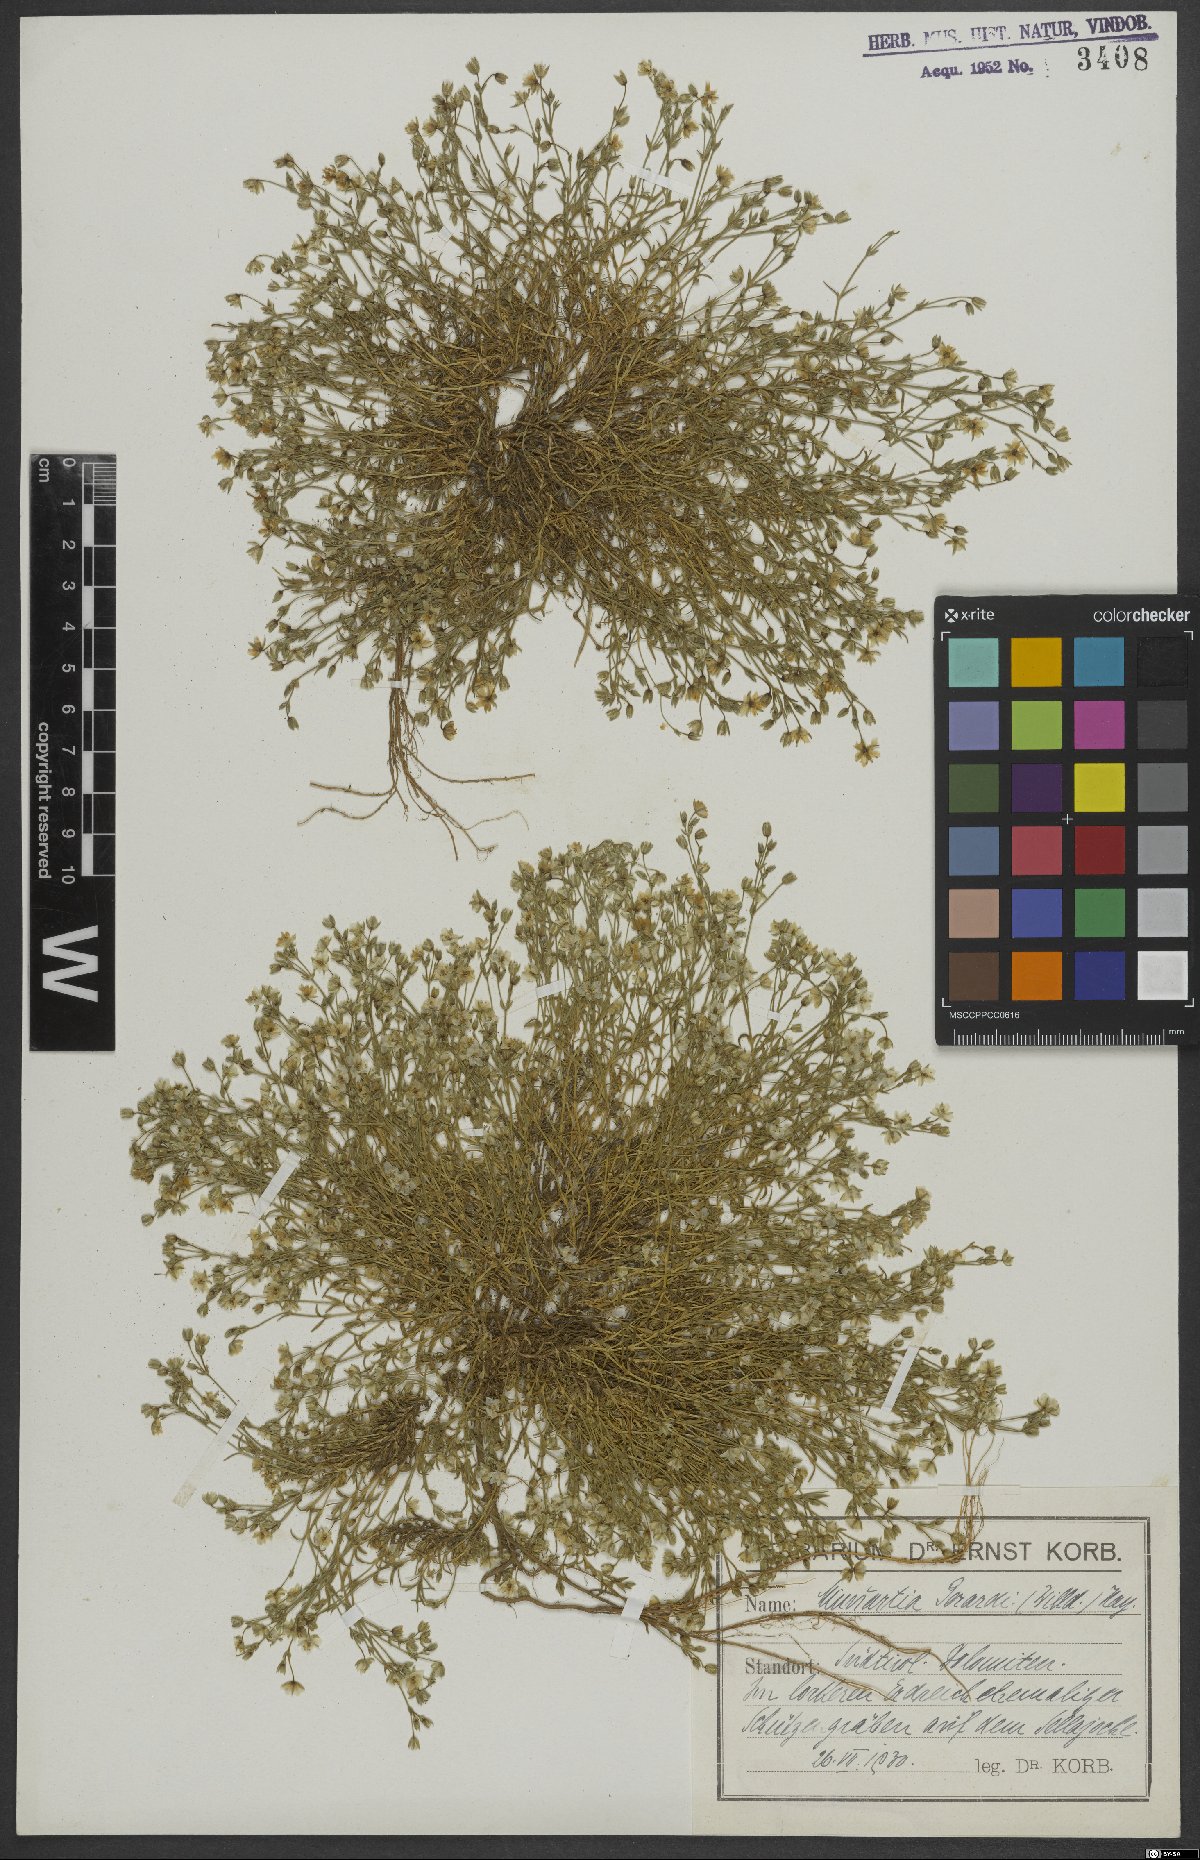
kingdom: Plantae
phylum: Tracheophyta
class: Magnoliopsida
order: Caryophyllales
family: Caryophyllaceae
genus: Sabulina
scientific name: Sabulina verna
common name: Spring sandwort
